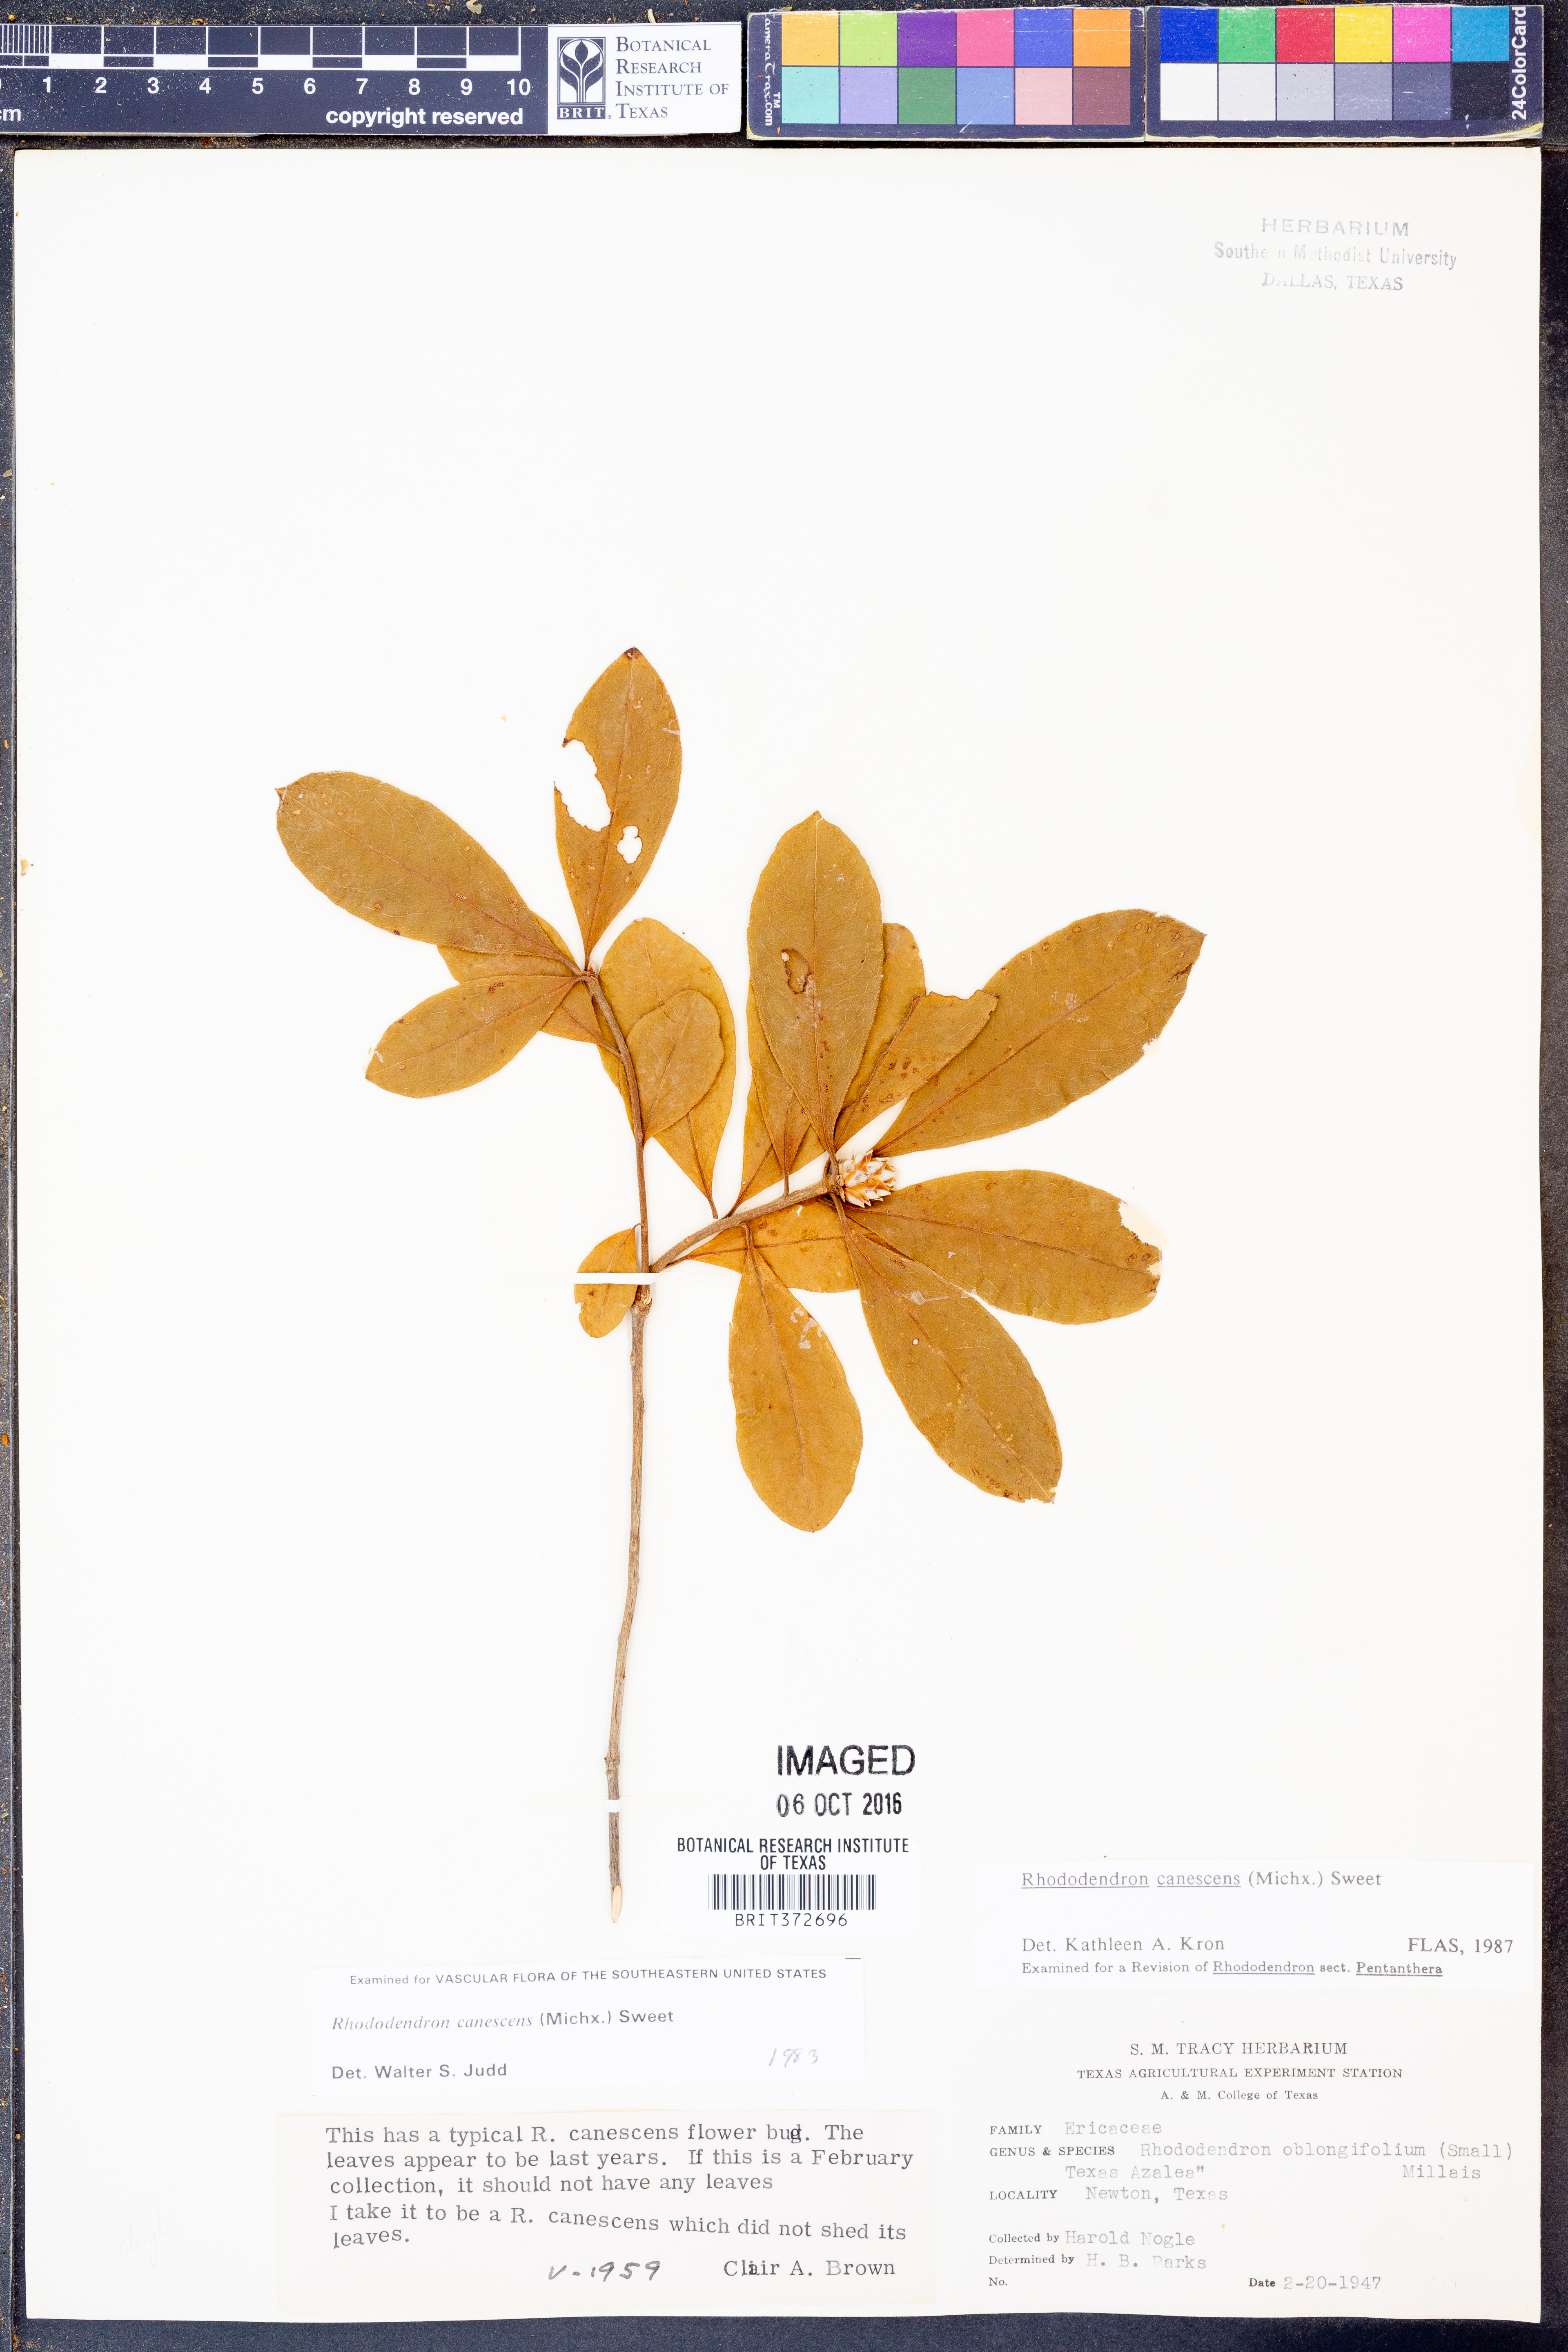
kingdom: Plantae
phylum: Tracheophyta
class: Magnoliopsida
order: Ericales
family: Ericaceae
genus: Rhododendron
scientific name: Rhododendron canescens
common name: Mountain azalea
